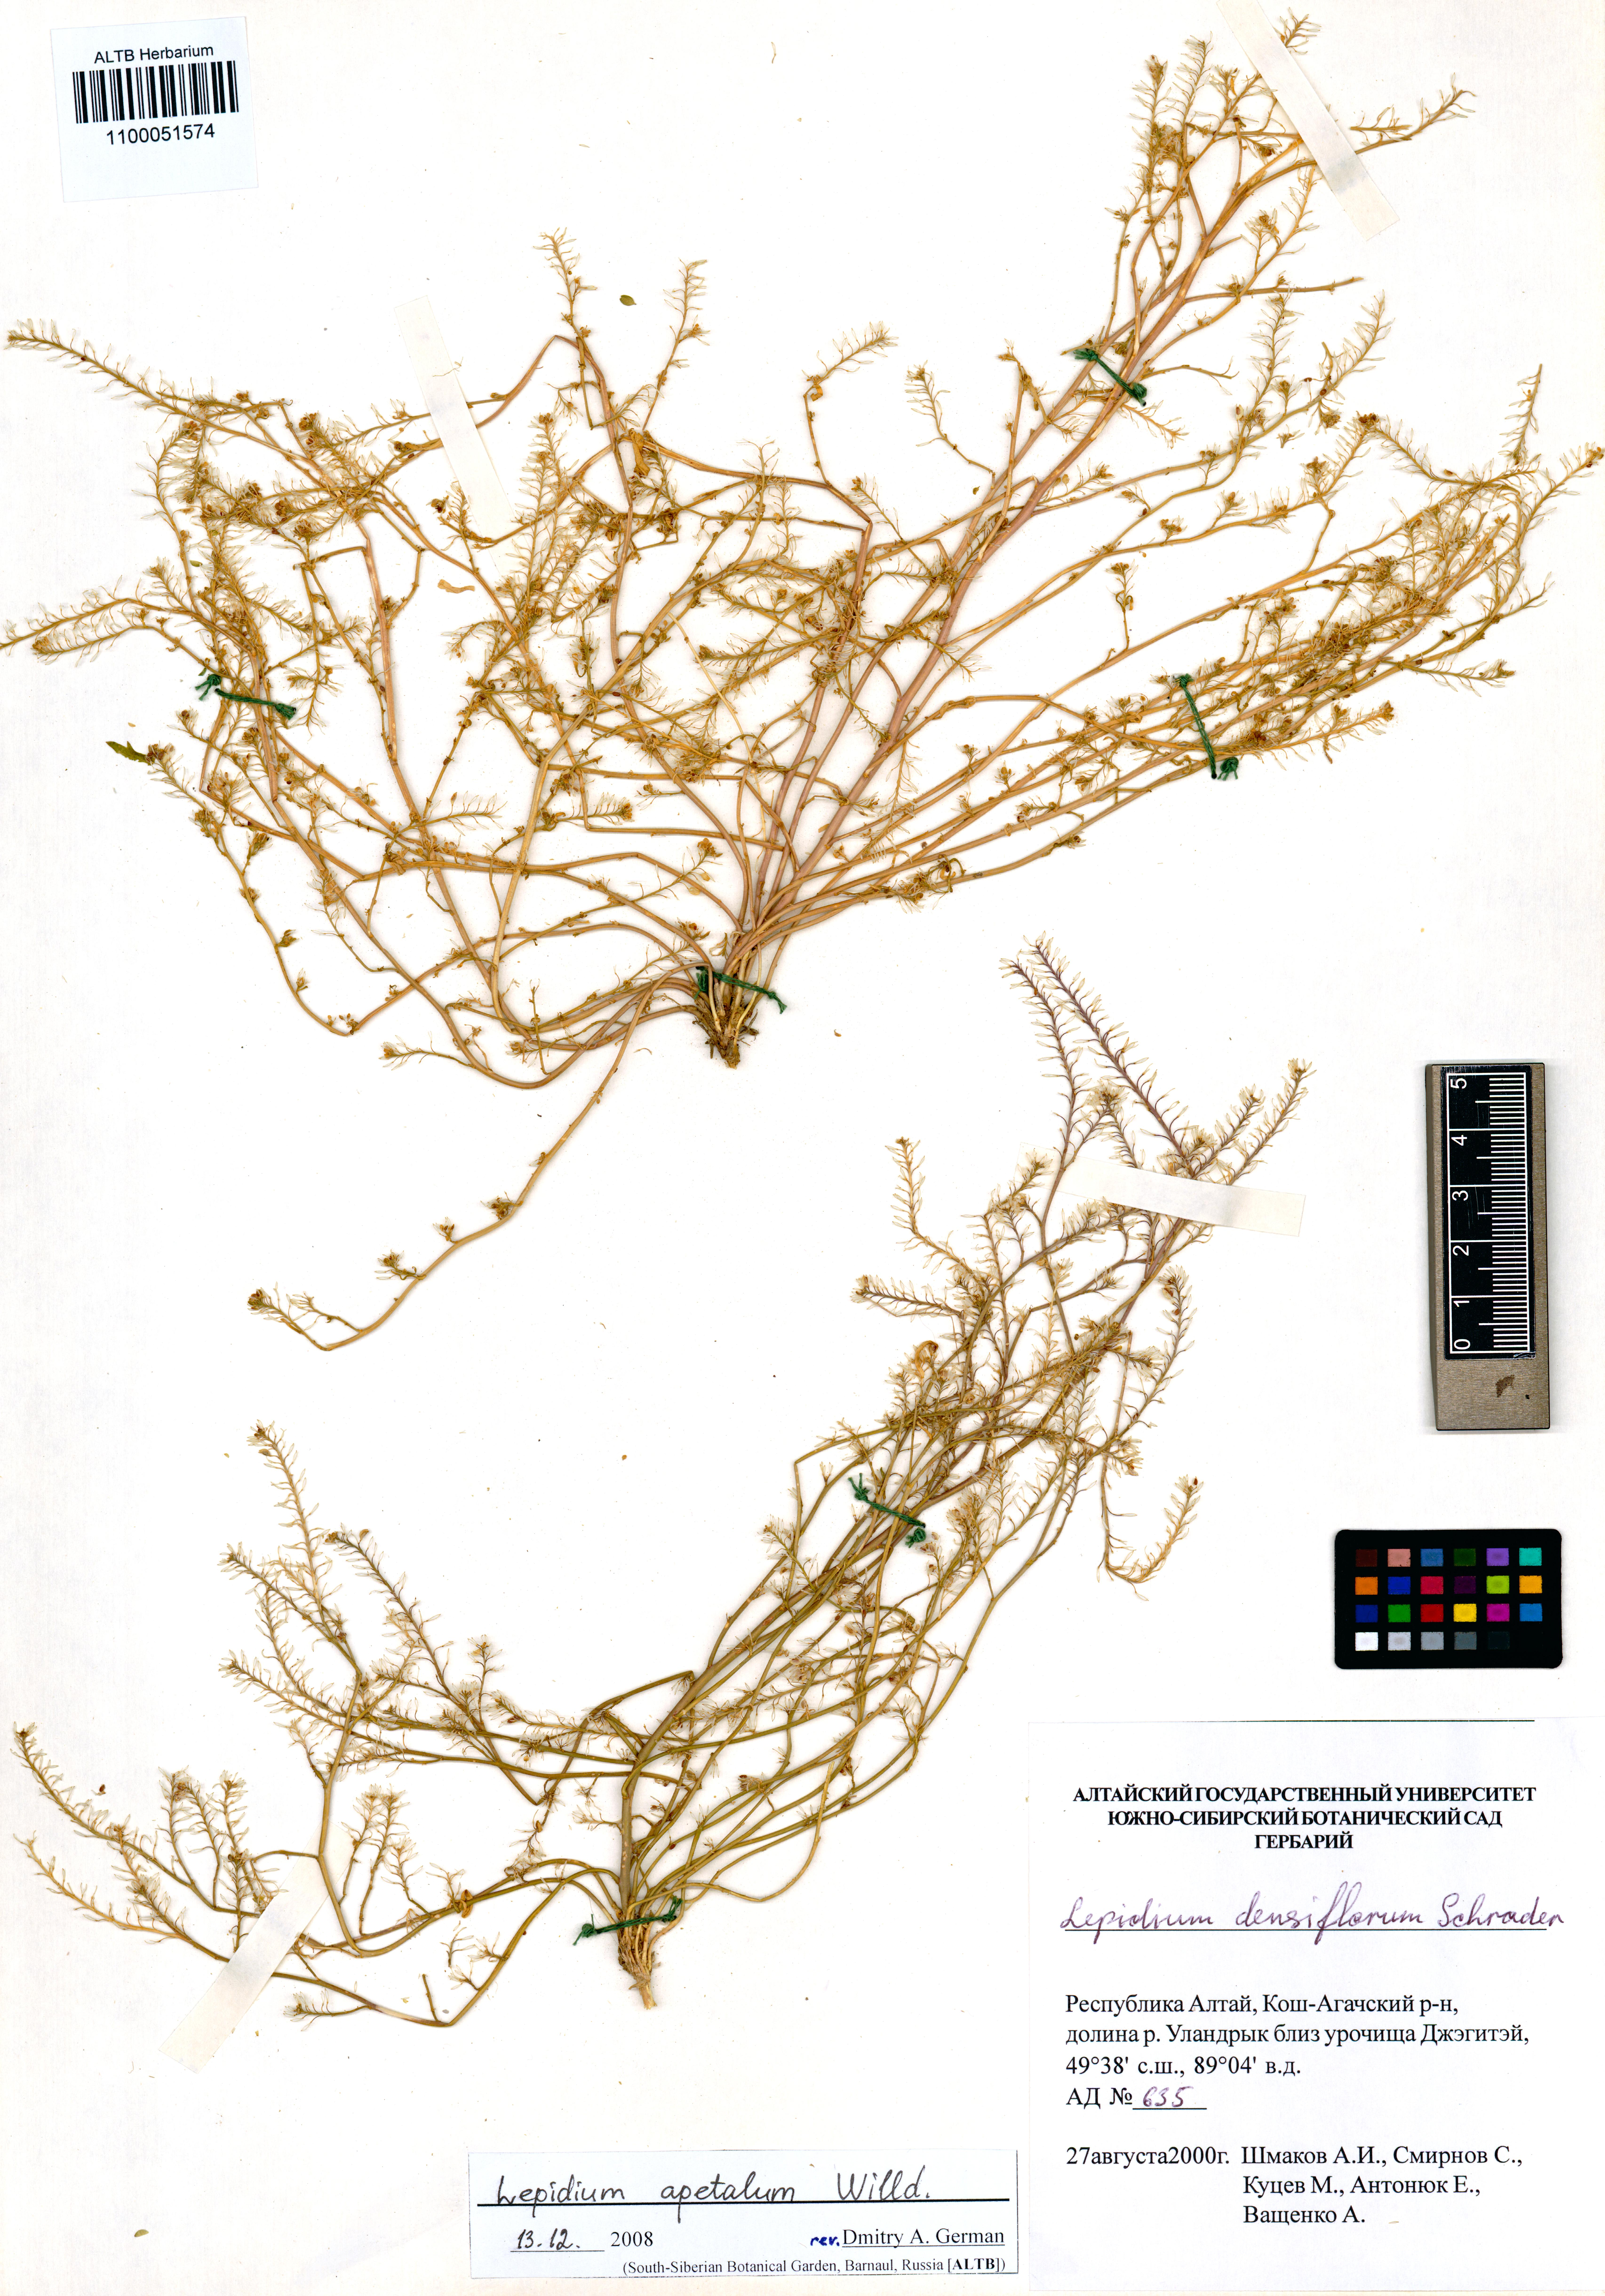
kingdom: Plantae
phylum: Tracheophyta
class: Magnoliopsida
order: Brassicales
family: Brassicaceae
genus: Lepidium
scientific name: Lepidium apetalum
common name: Pepperweed
